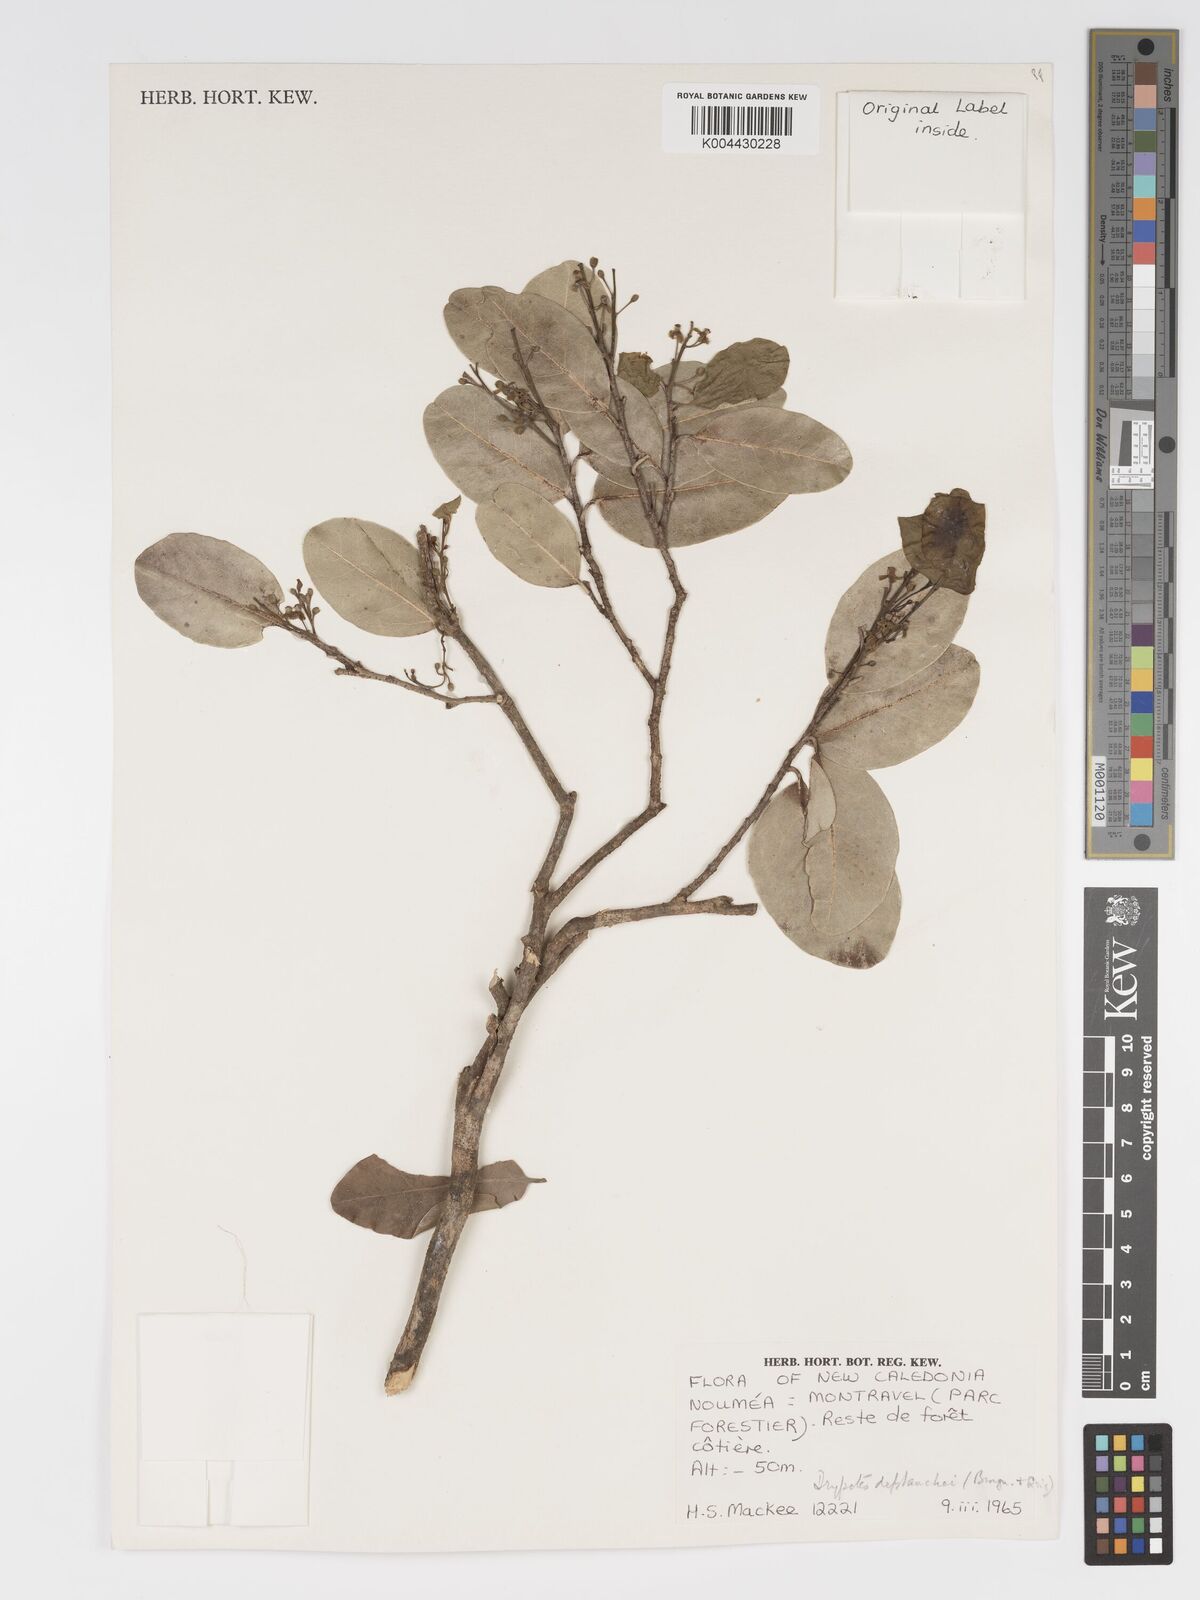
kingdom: Plantae
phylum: Tracheophyta
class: Magnoliopsida
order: Malpighiales
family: Putranjivaceae
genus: Drypetes
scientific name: Drypetes deplanchei
